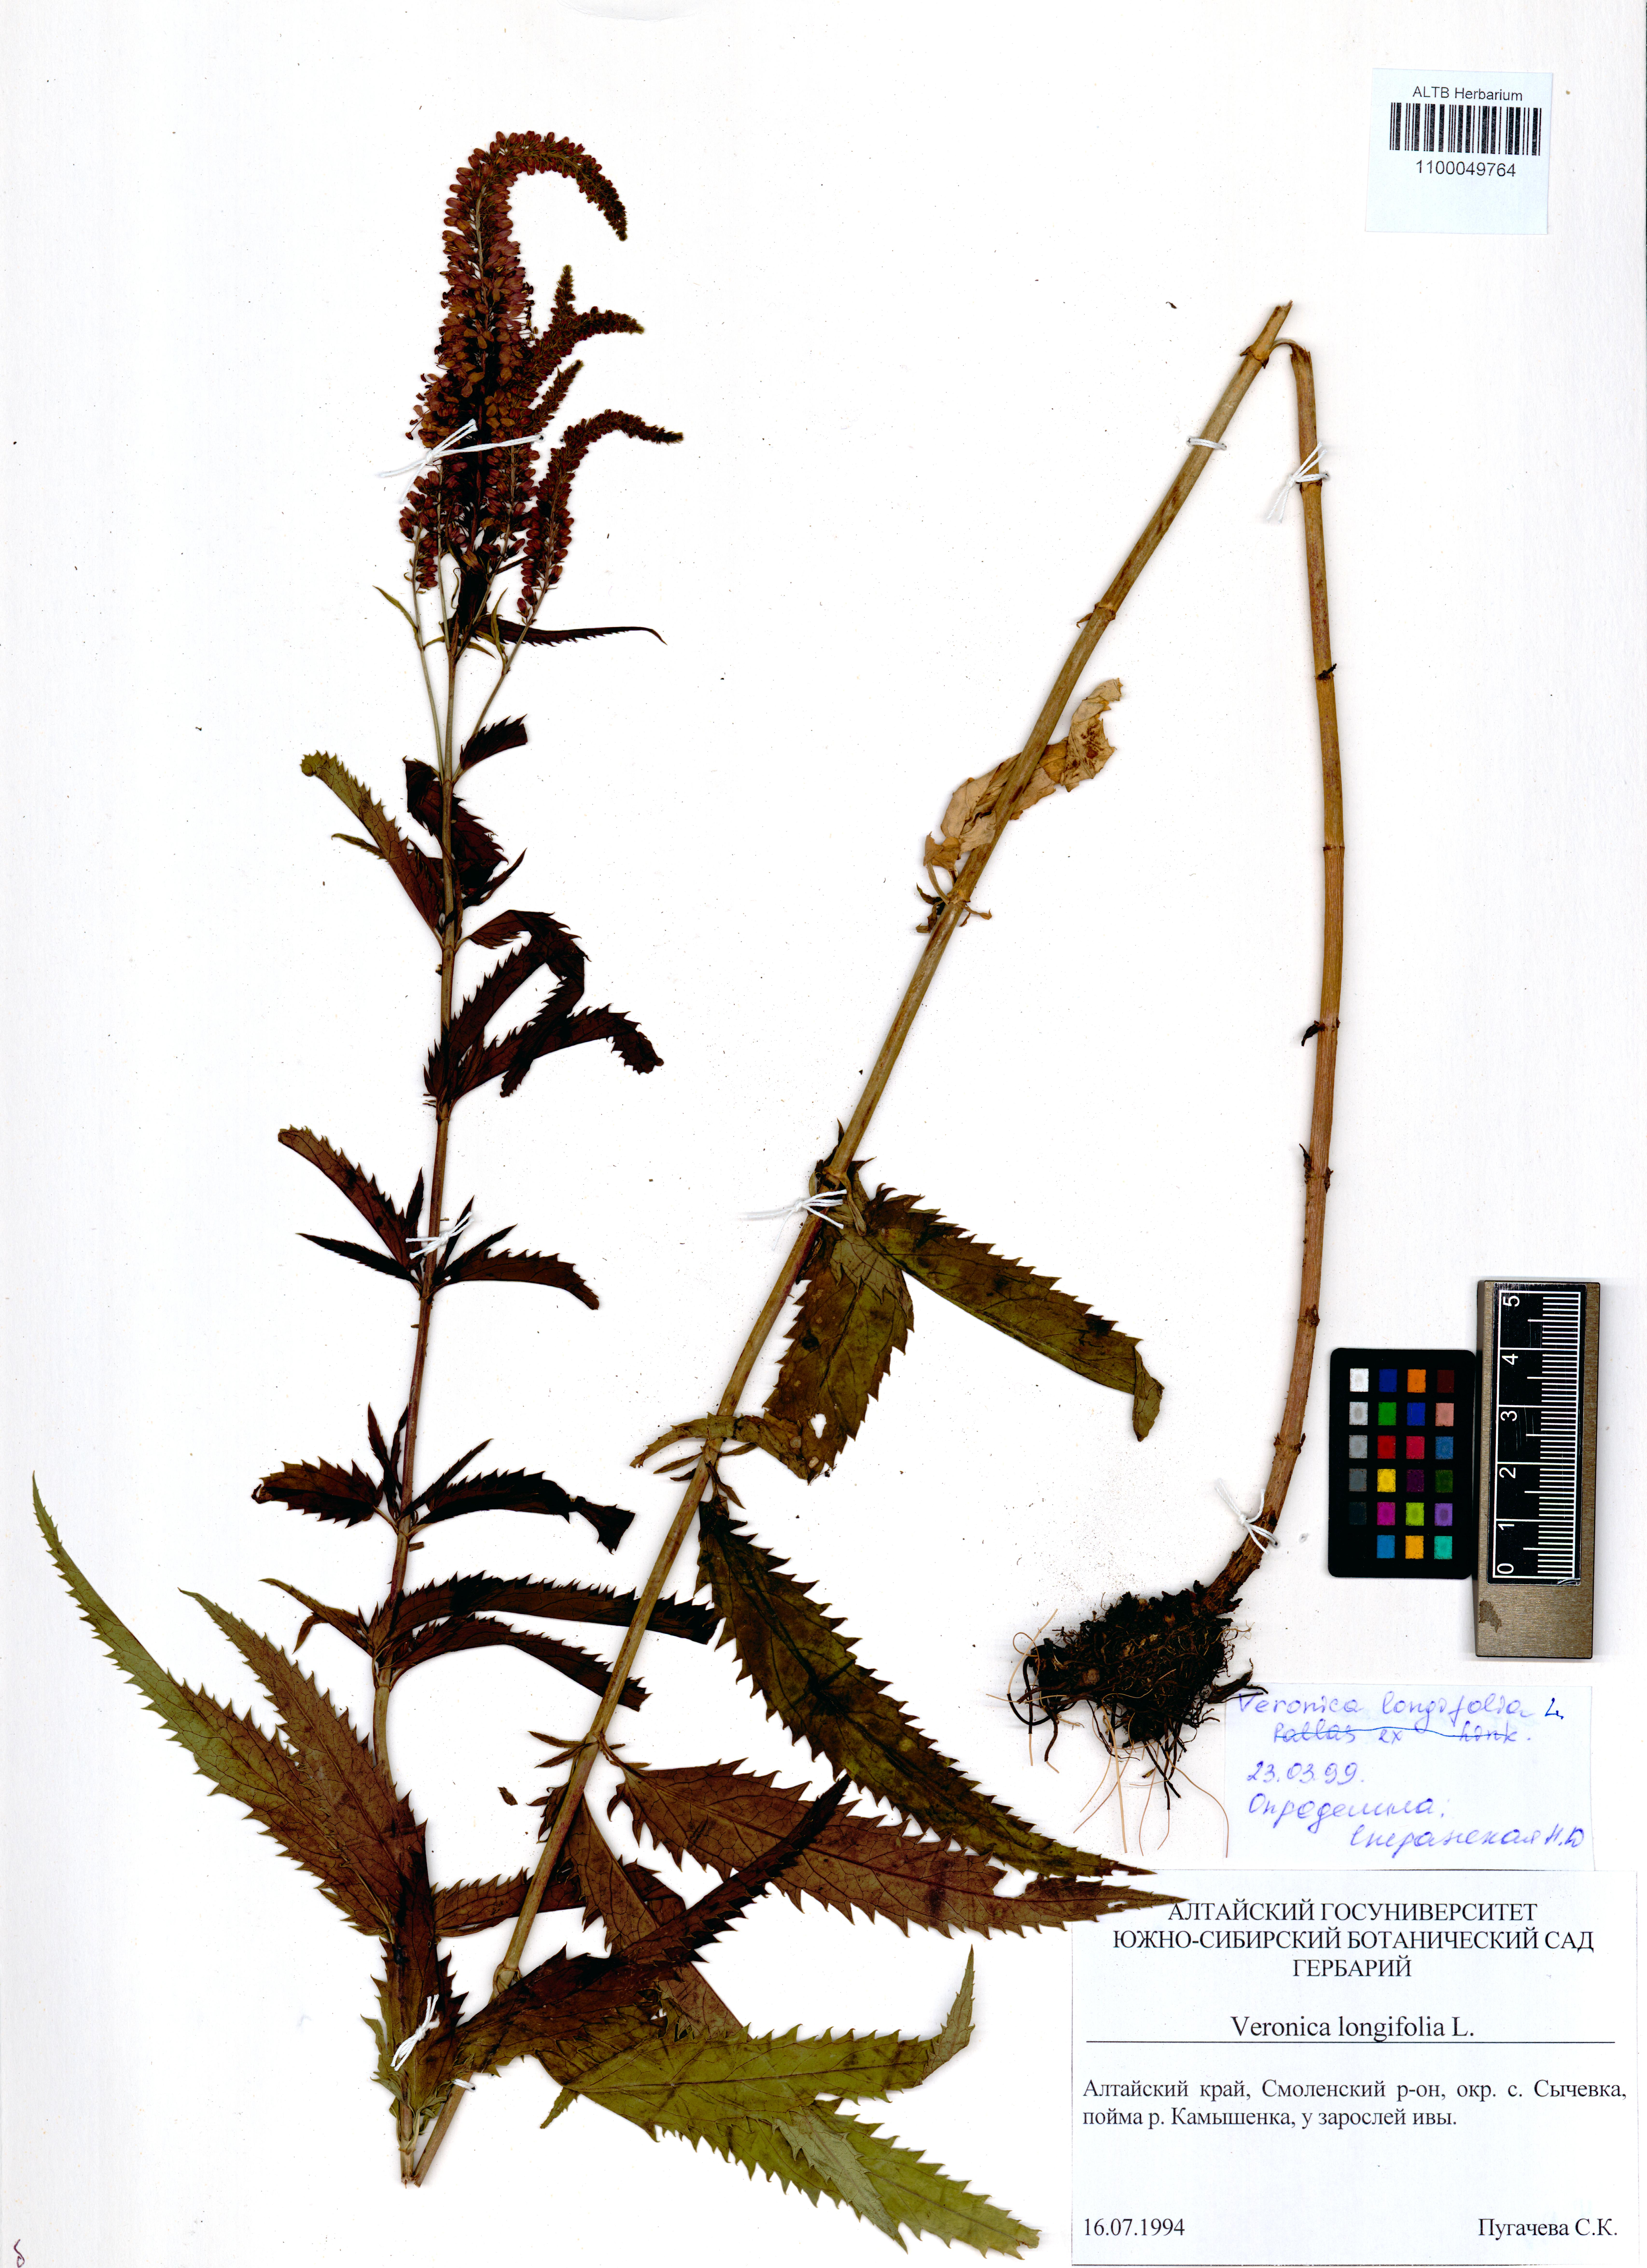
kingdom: Plantae
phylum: Tracheophyta
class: Magnoliopsida
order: Lamiales
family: Plantaginaceae
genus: Veronica
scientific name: Veronica longifolia
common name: Garden speedwell
